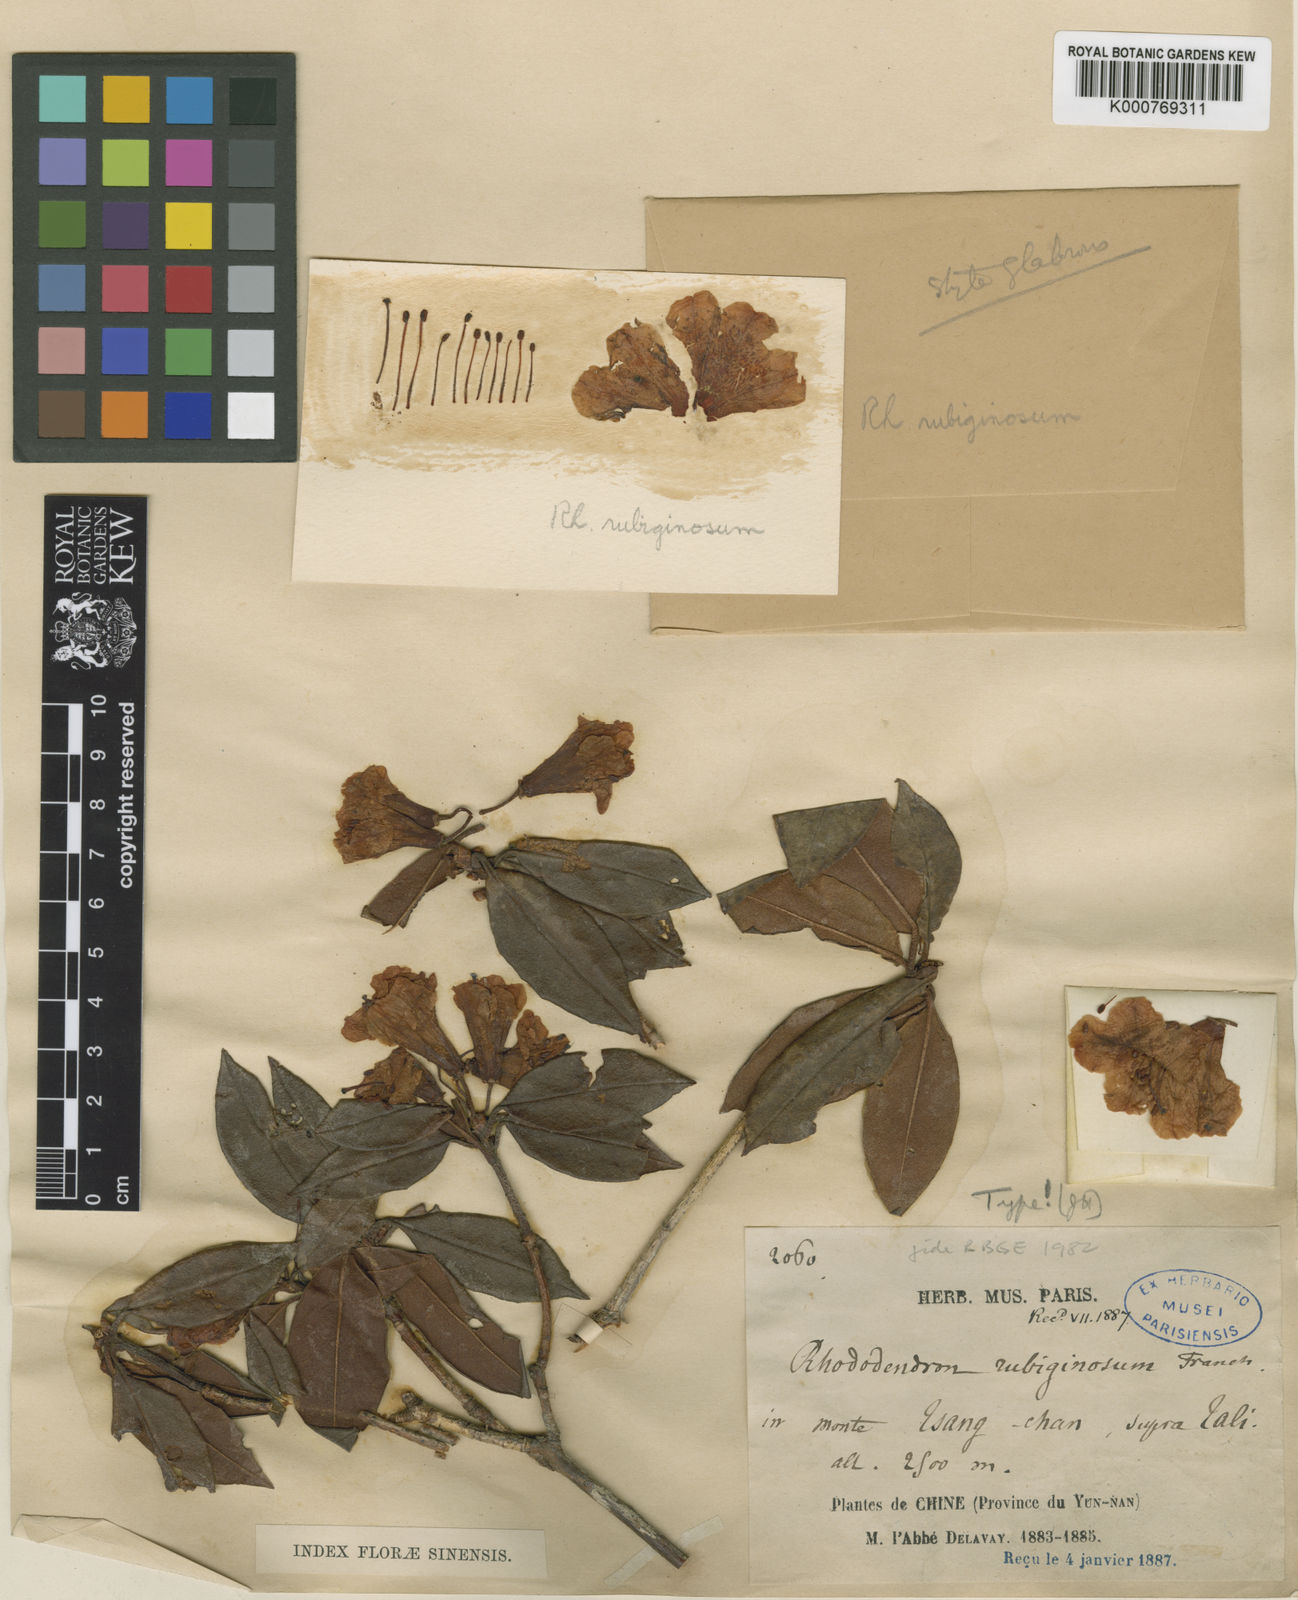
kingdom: Plantae
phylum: Tracheophyta
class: Magnoliopsida
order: Ericales
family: Ericaceae
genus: Rhododendron
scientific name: Rhododendron rubiginosum
